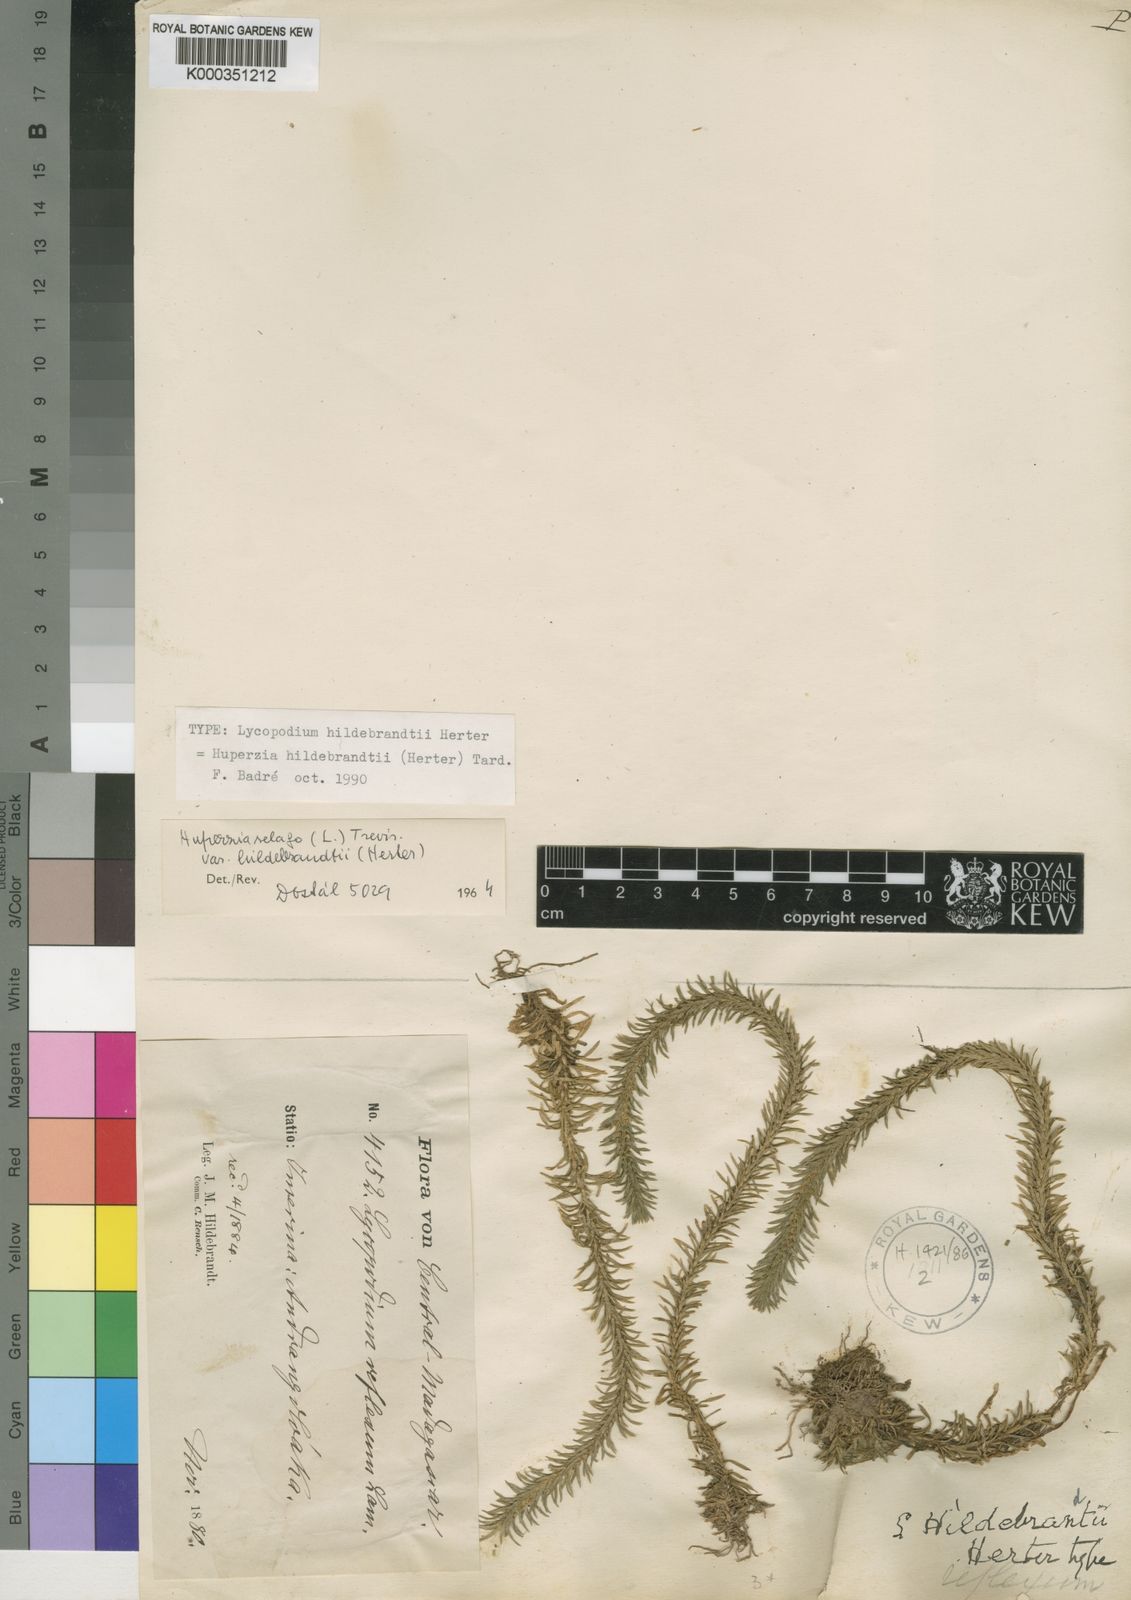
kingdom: Plantae
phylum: Tracheophyta
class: Lycopodiopsida
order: Lycopodiales
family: Lycopodiaceae
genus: Phlegmariurus
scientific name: Phlegmariurus hildebrandtii
